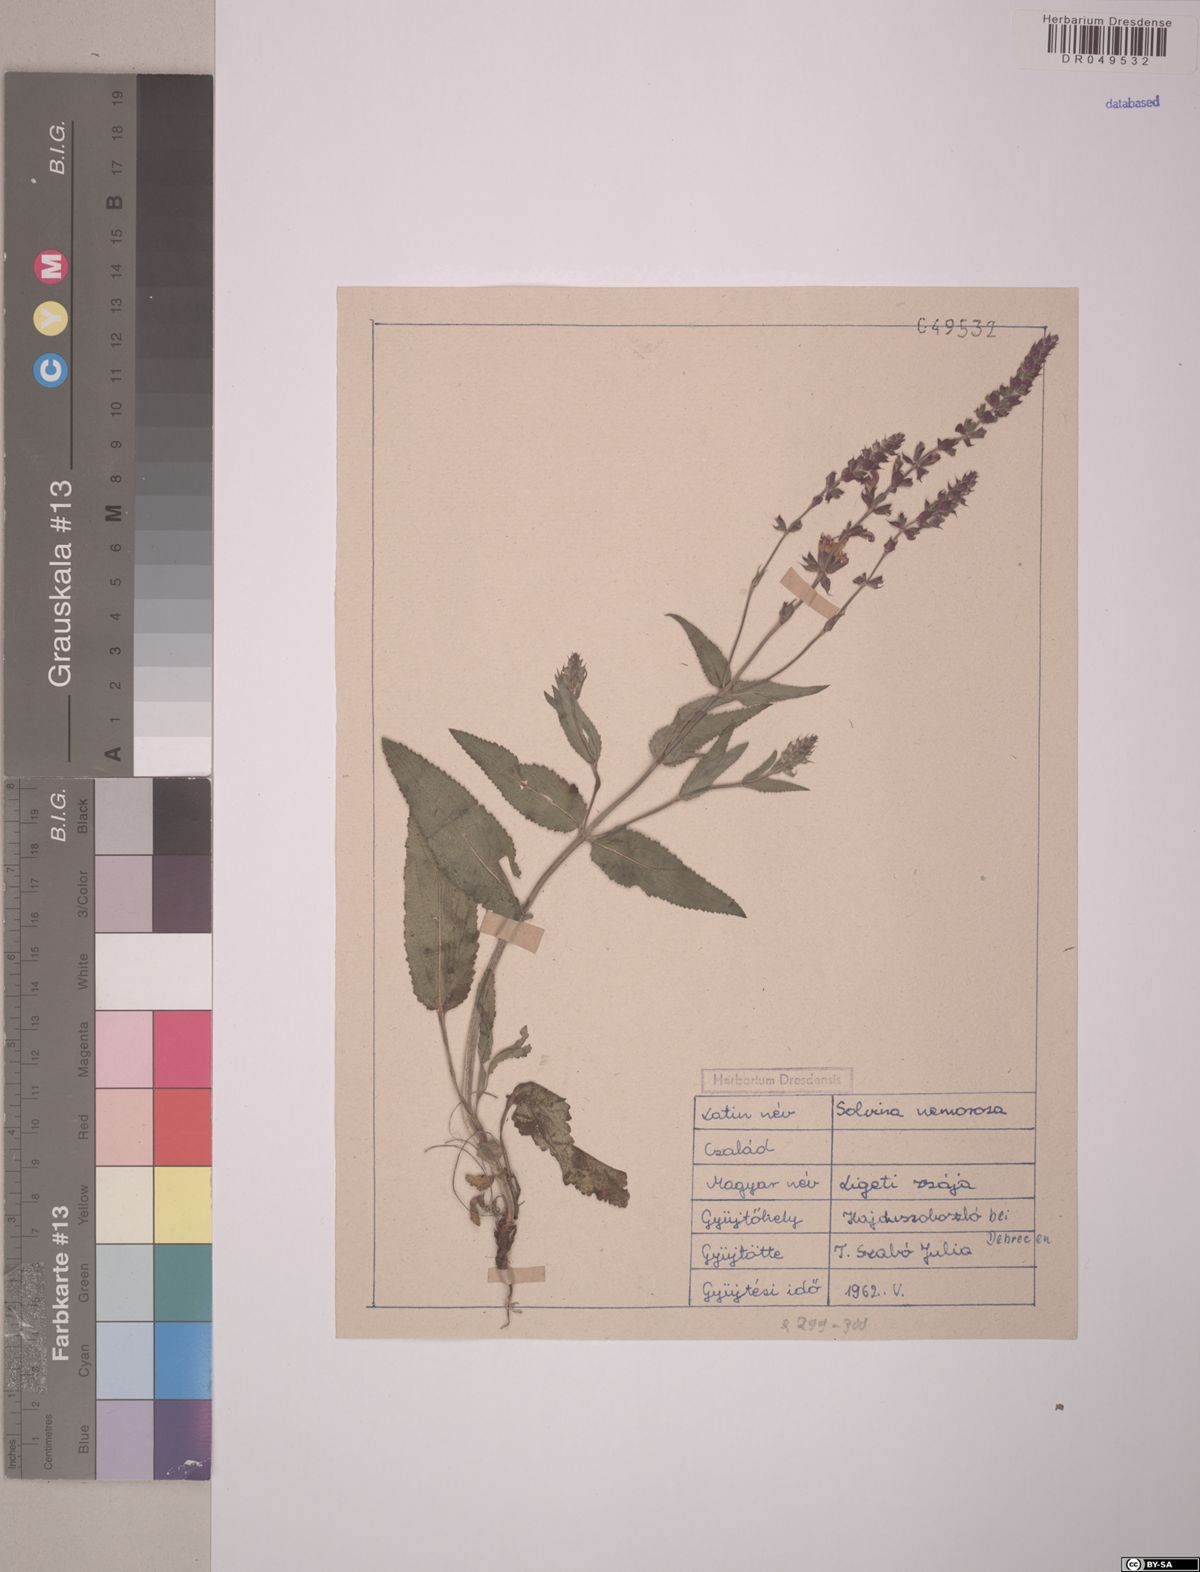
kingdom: Plantae
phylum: Tracheophyta
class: Magnoliopsida
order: Lamiales
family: Lamiaceae
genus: Salvia
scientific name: Salvia nemorosa
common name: Balkan clary
